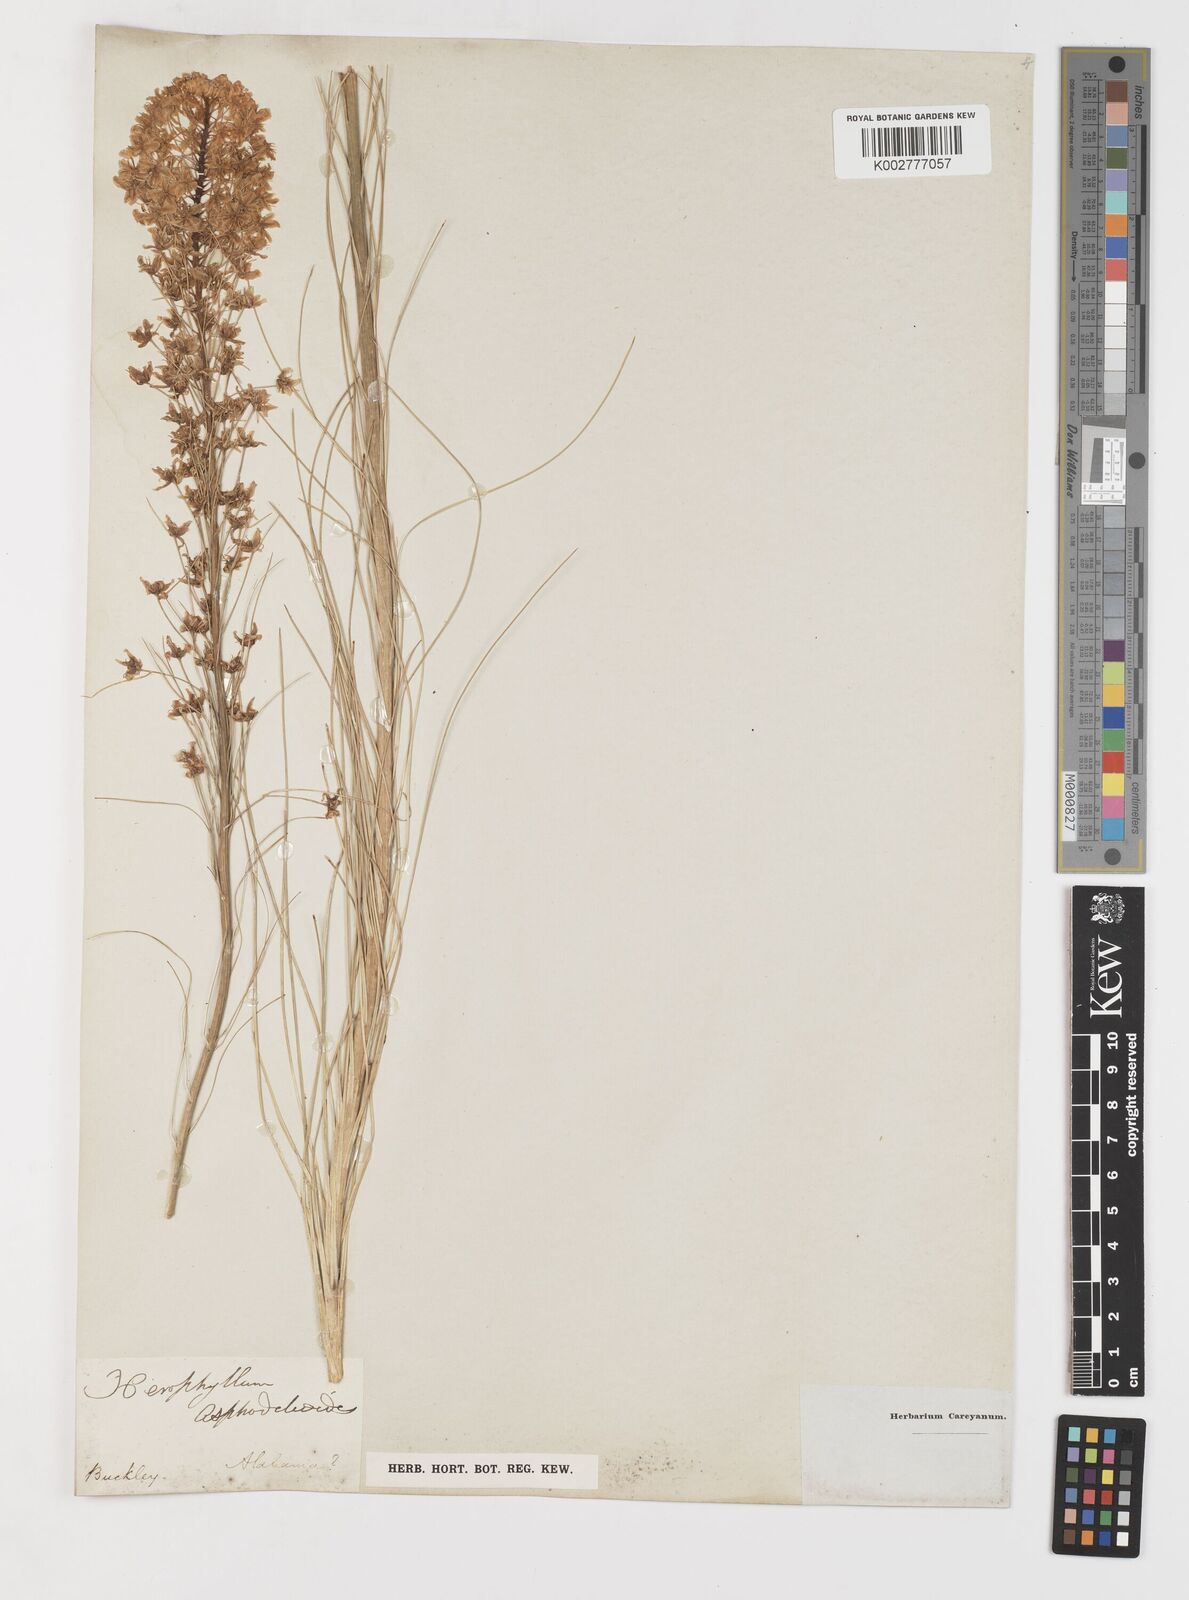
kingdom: Plantae
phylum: Tracheophyta
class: Liliopsida
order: Liliales
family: Melanthiaceae
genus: Xerophyllum
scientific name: Xerophyllum asphodeloides
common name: Mountain-asphodel
